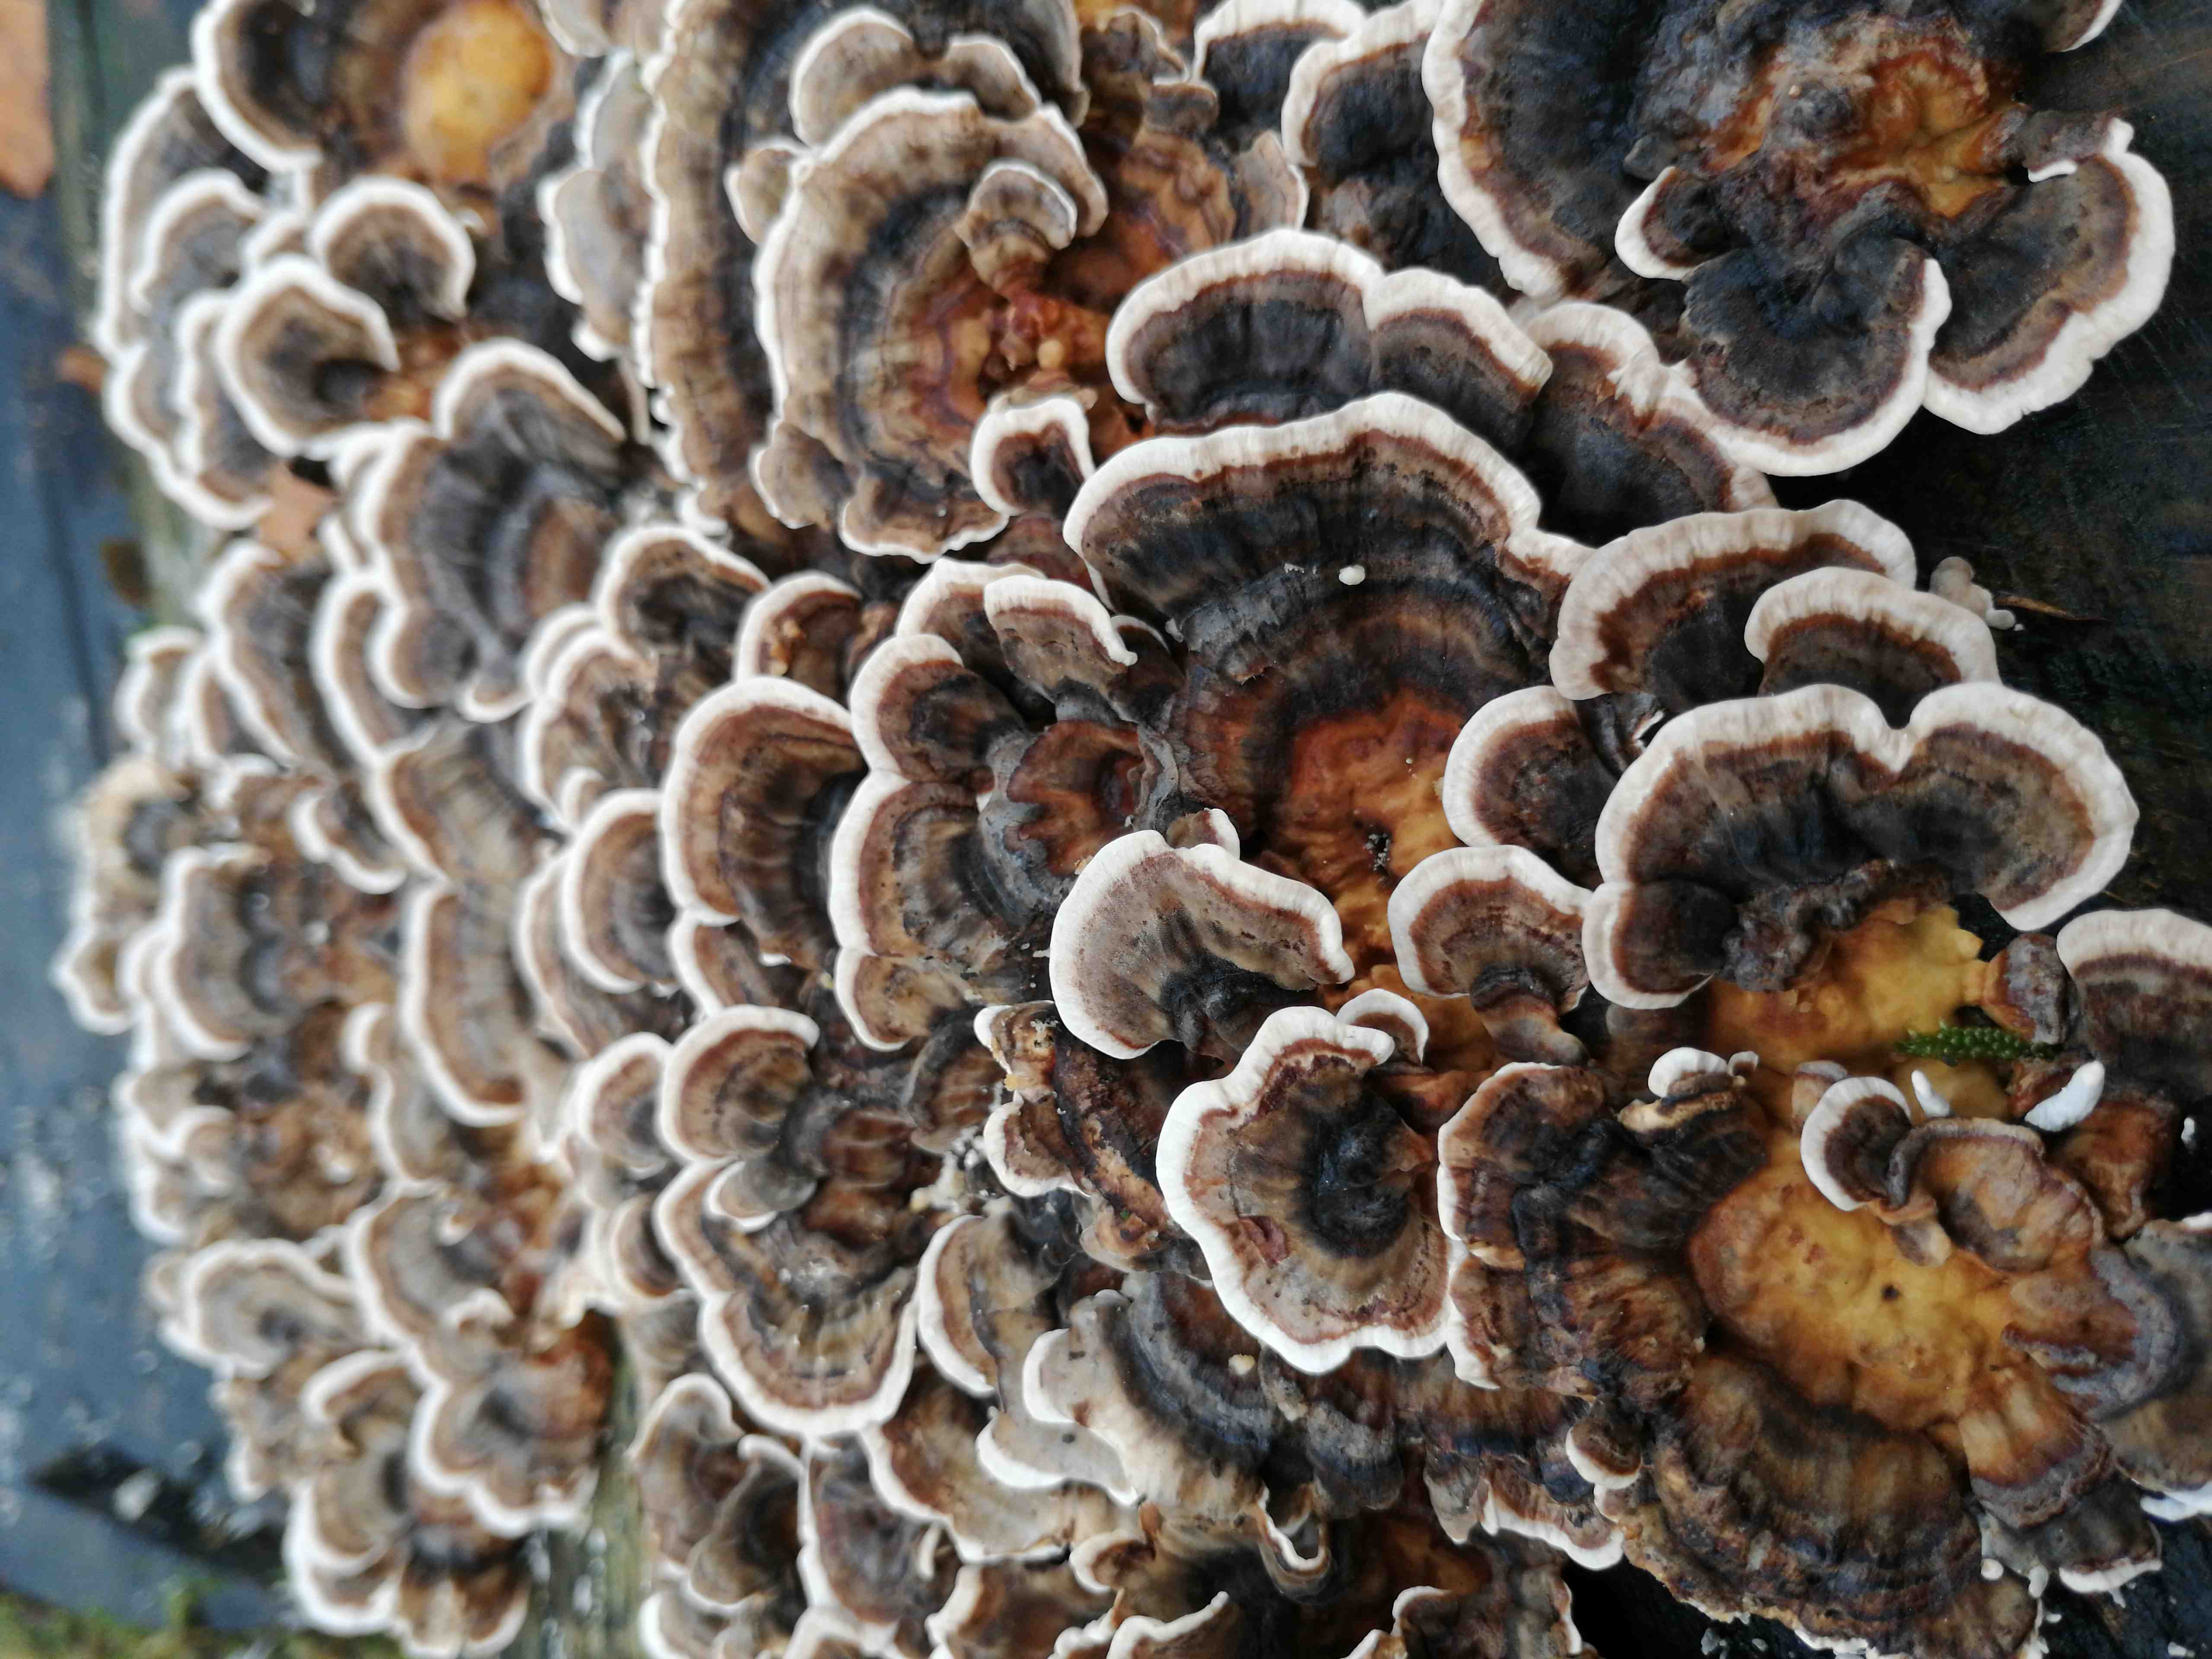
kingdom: Fungi
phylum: Basidiomycota
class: Agaricomycetes
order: Polyporales
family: Polyporaceae
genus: Trametes
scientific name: Trametes versicolor
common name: broget læderporesvamp
